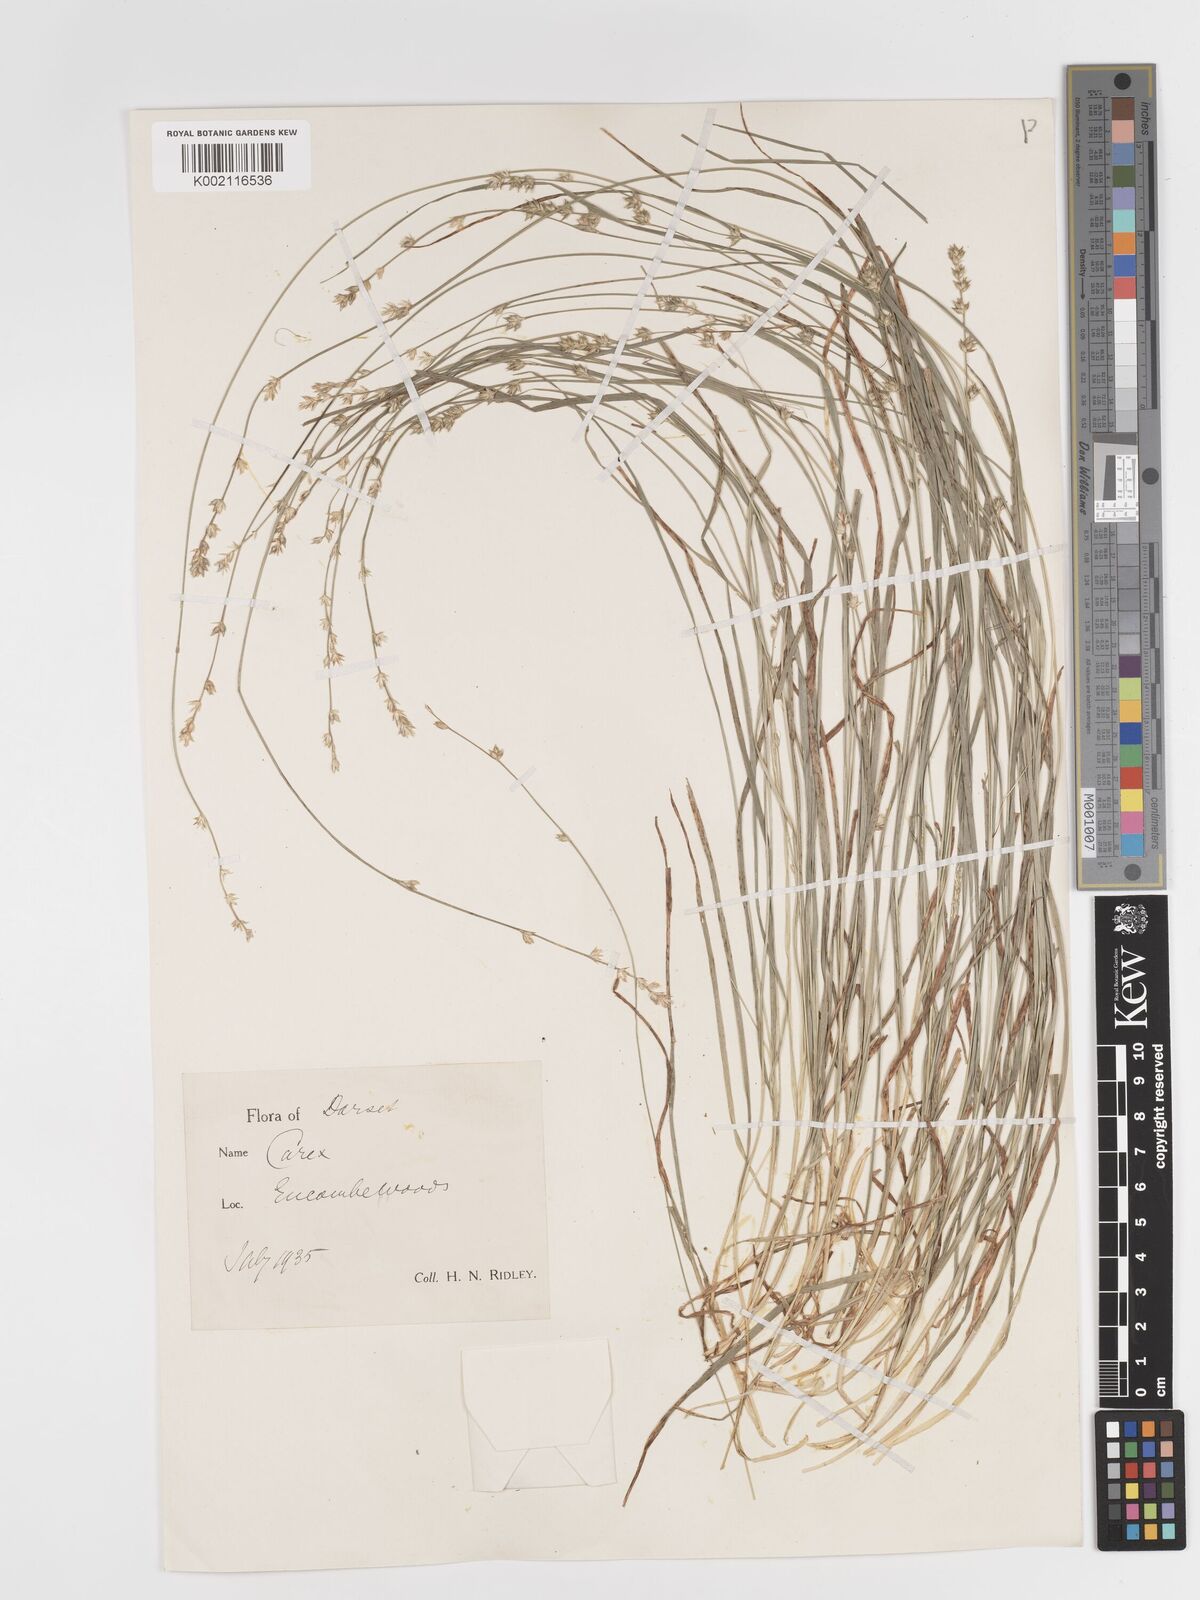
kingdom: Plantae
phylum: Tracheophyta
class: Liliopsida
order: Poales
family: Cyperaceae
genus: Carex
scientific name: Carex divulsa
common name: Grassland sedge
